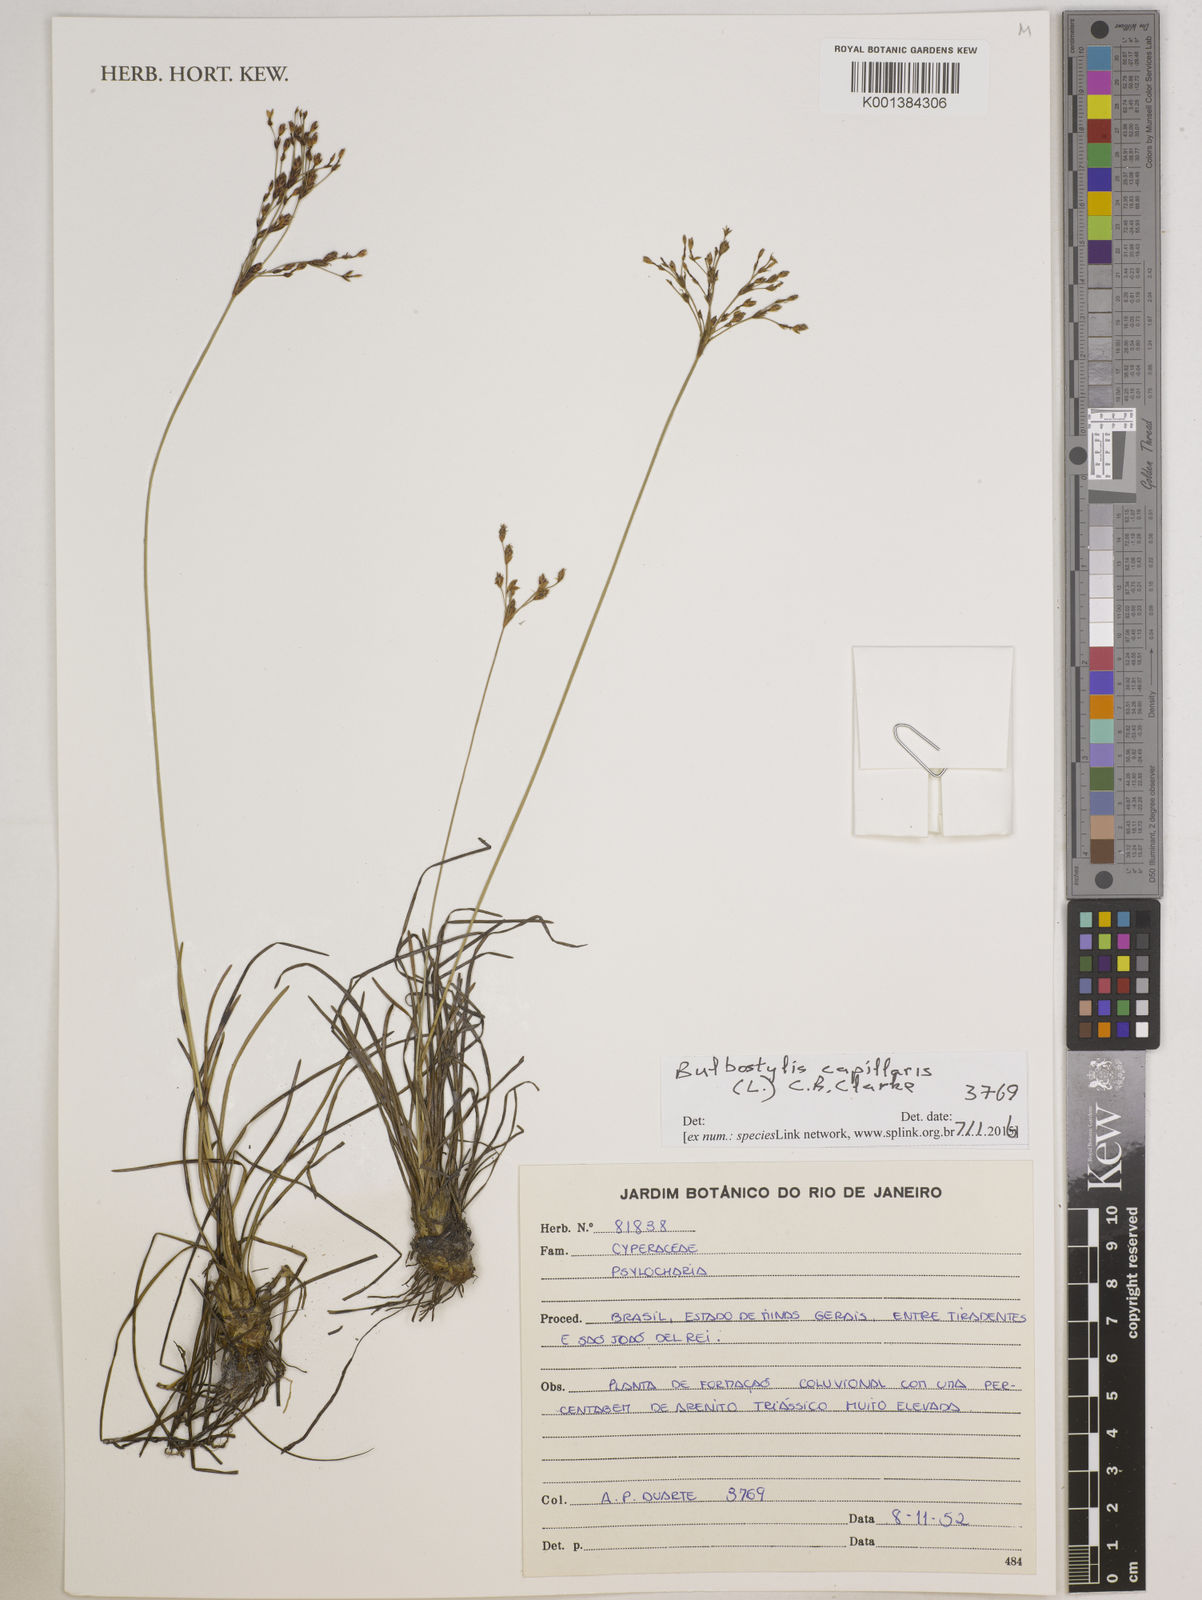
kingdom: Plantae
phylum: Tracheophyta
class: Liliopsida
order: Poales
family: Cyperaceae
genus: Bulbostylis
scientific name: Bulbostylis capillaris
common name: Densetuft hairsedge
